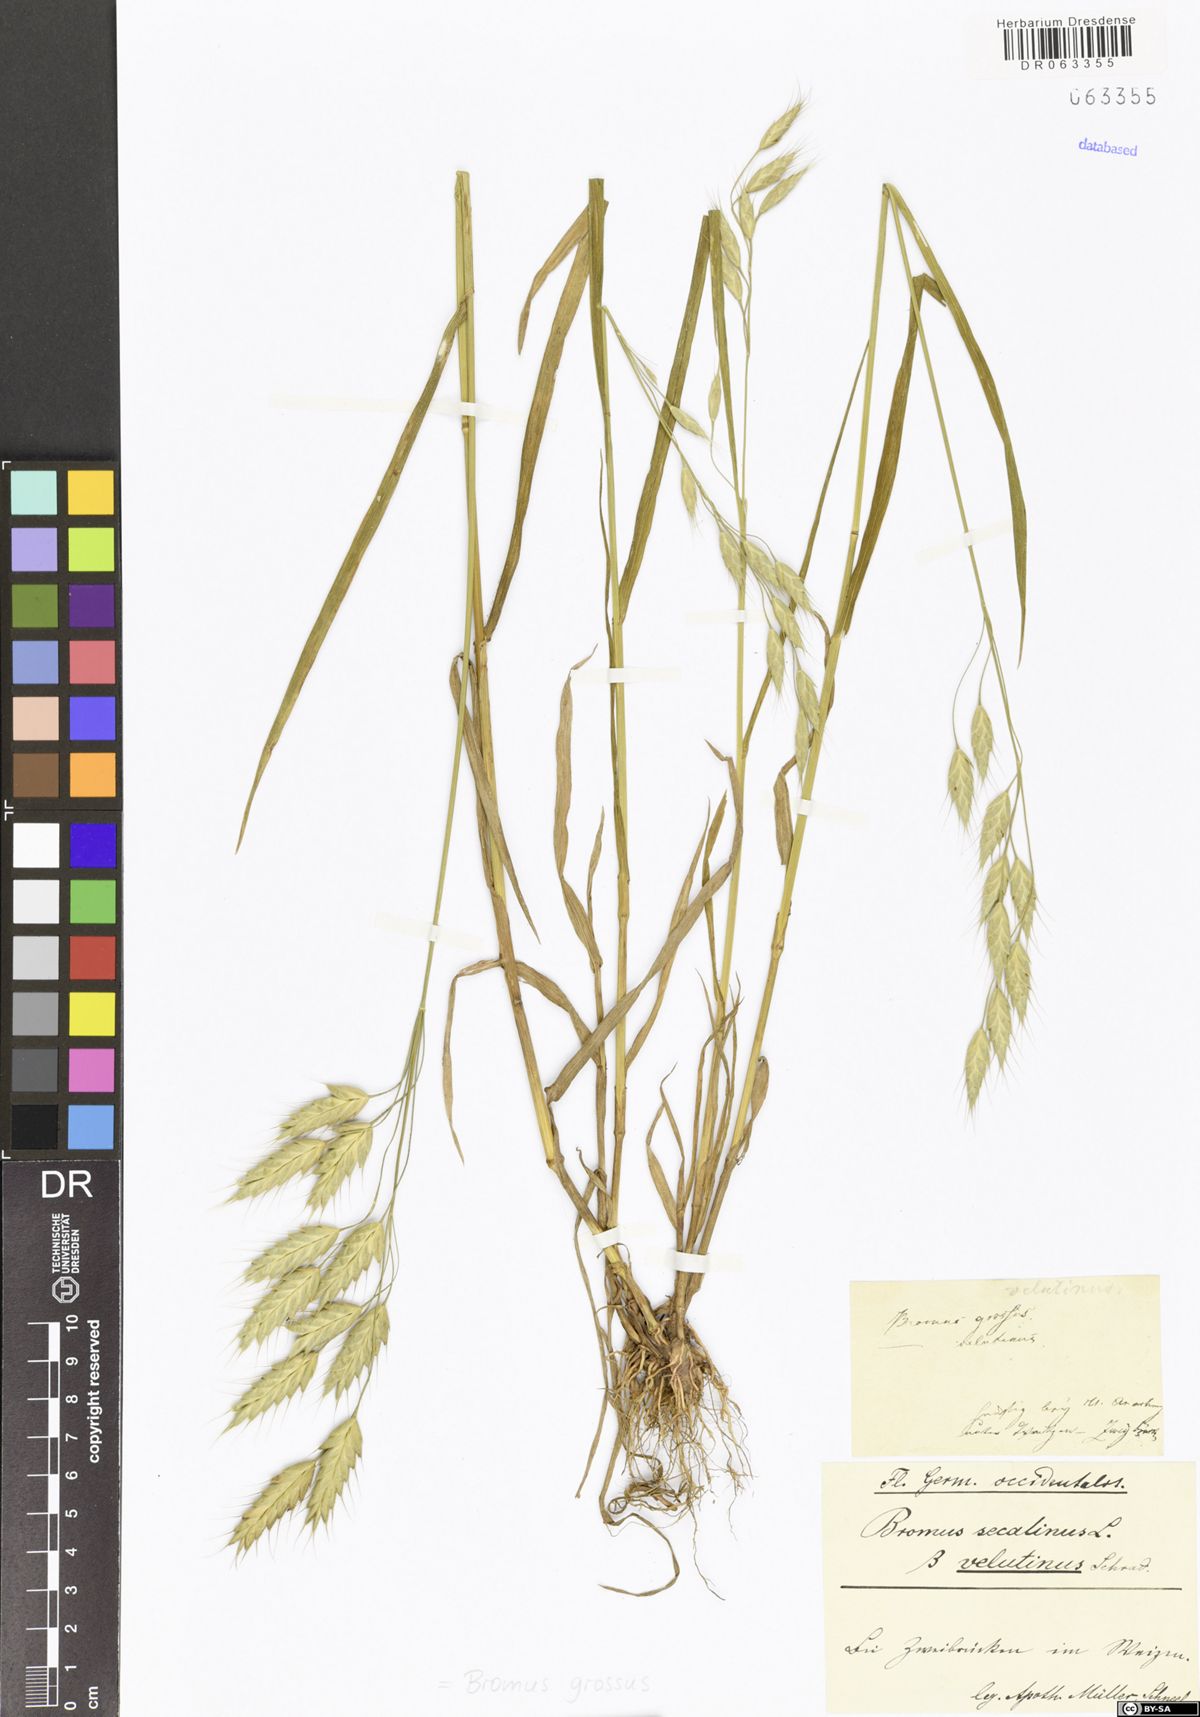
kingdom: Plantae
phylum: Tracheophyta
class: Liliopsida
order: Poales
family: Poaceae
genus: Bromus
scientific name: Bromus grossus
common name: Whiskered brome
